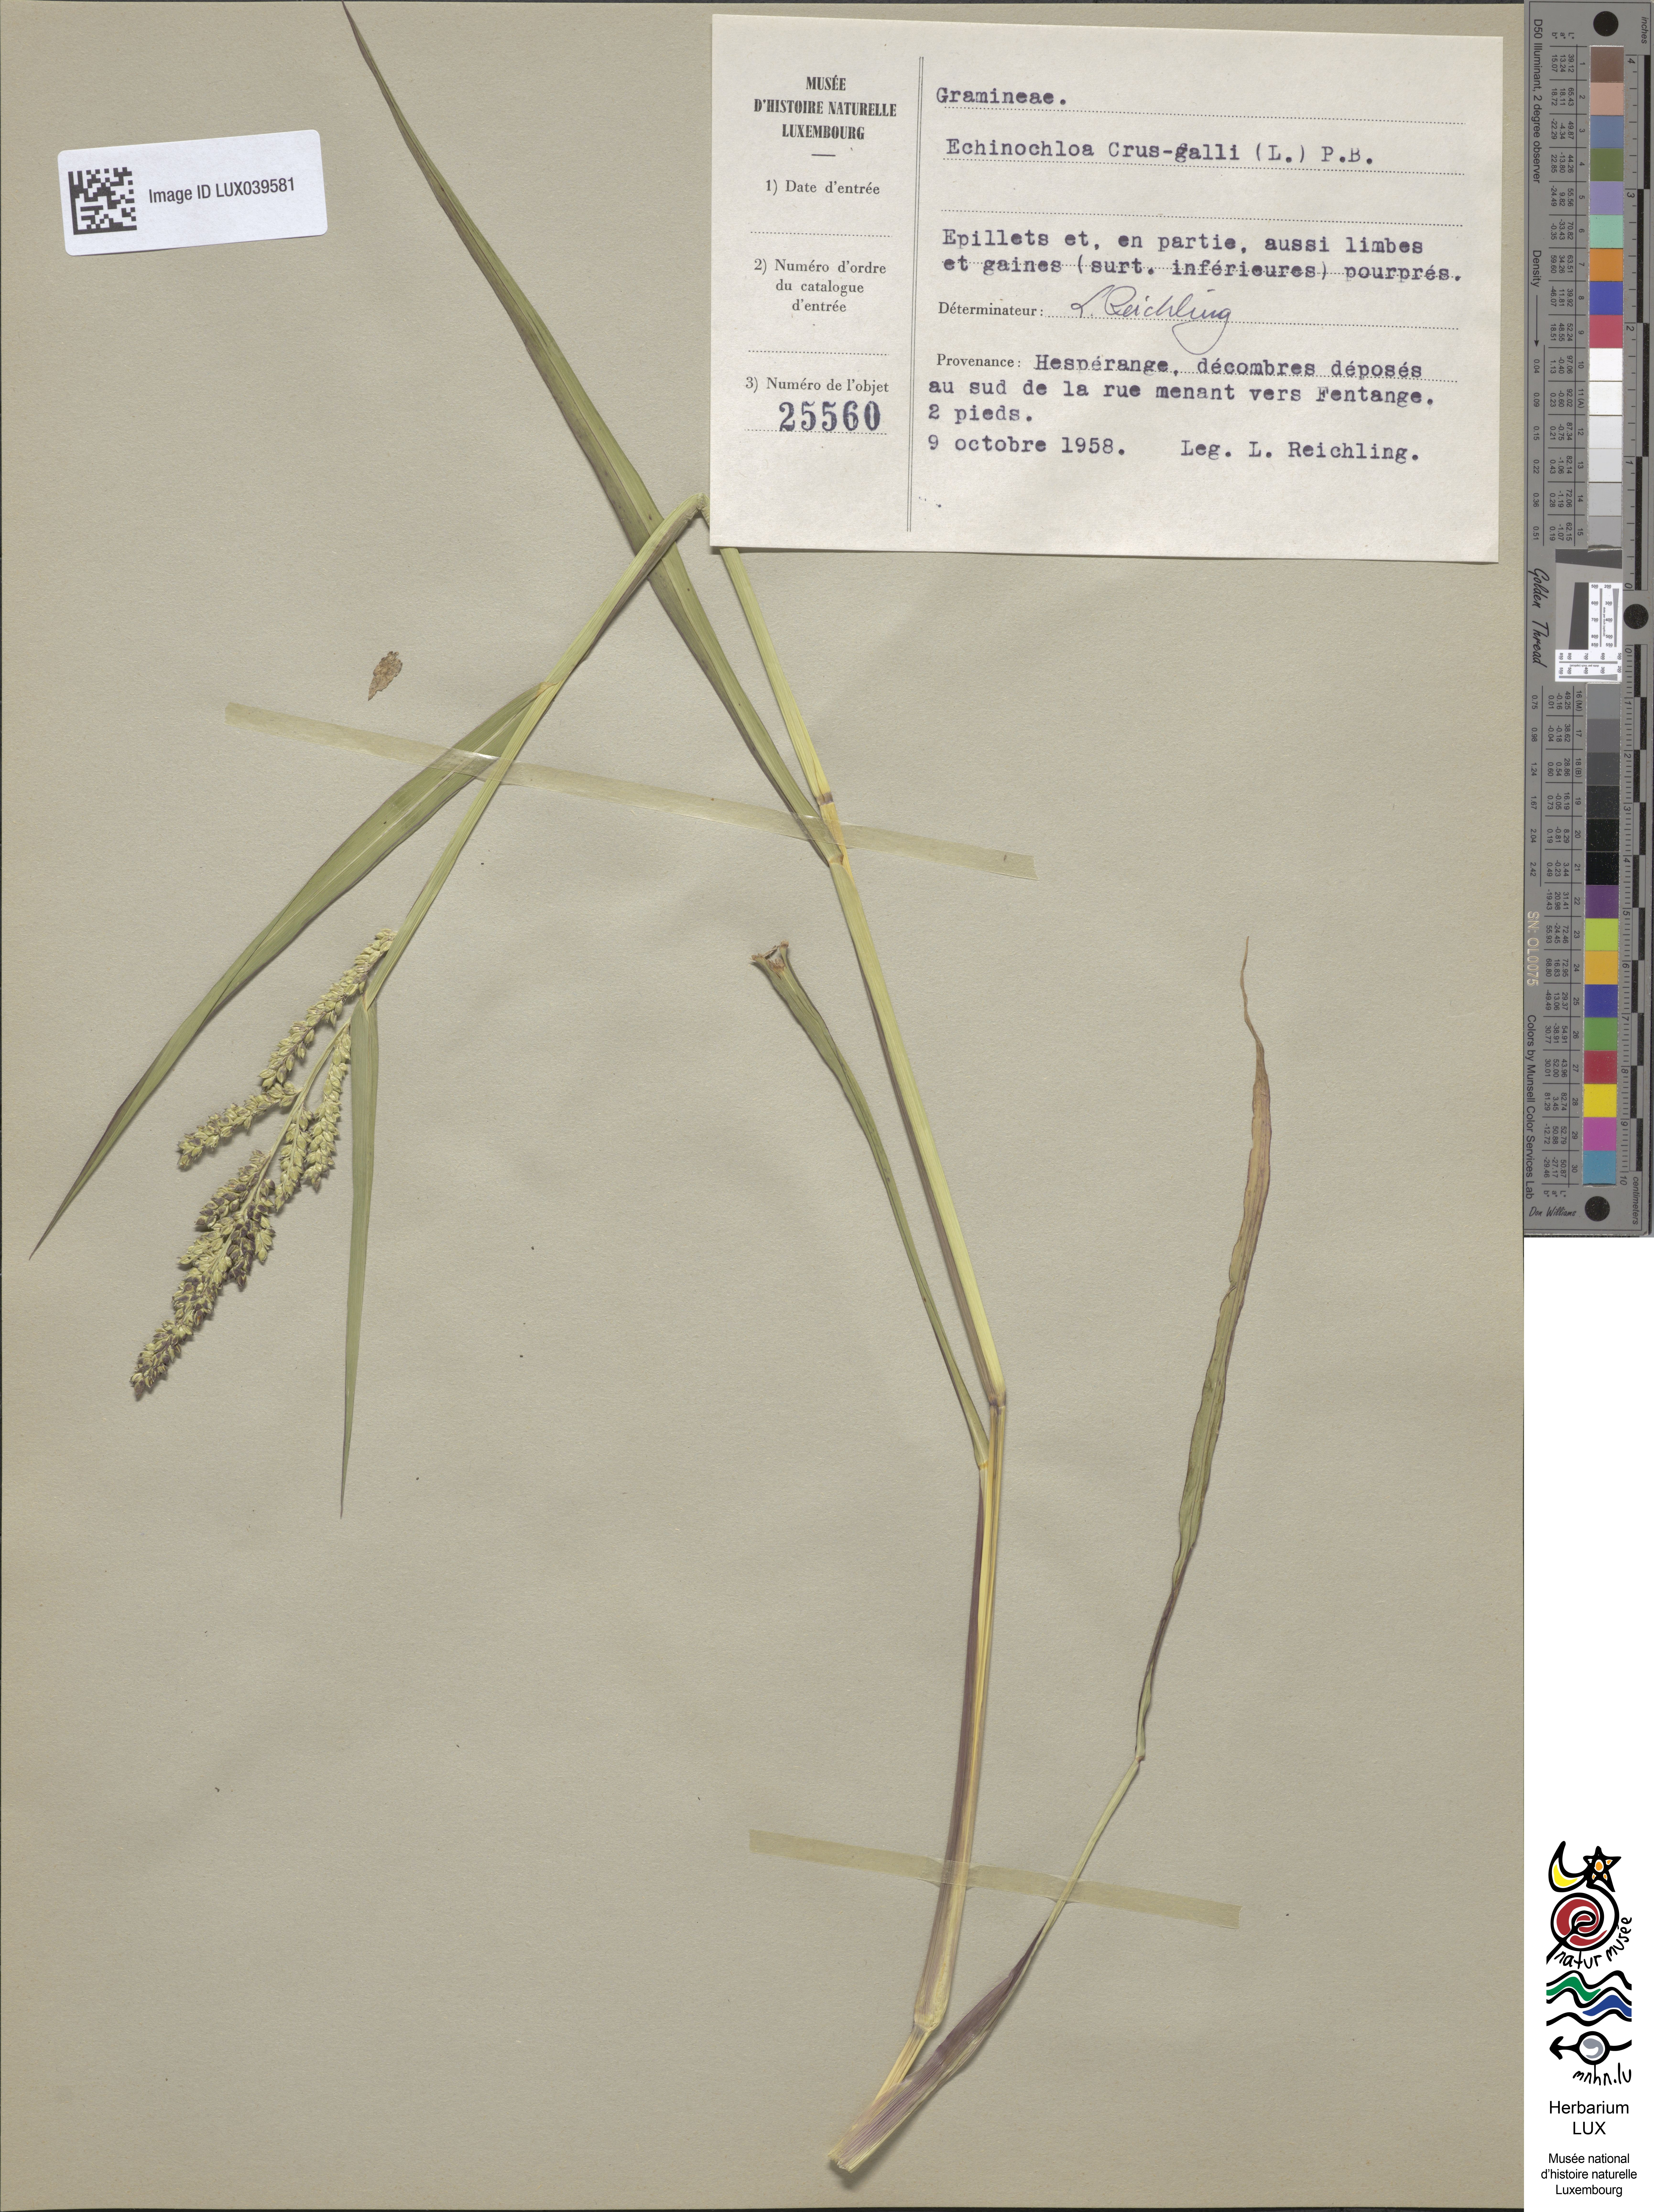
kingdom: Plantae
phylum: Tracheophyta
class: Liliopsida
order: Poales
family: Poaceae
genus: Echinochloa
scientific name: Echinochloa crus-galli
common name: Cockspur
